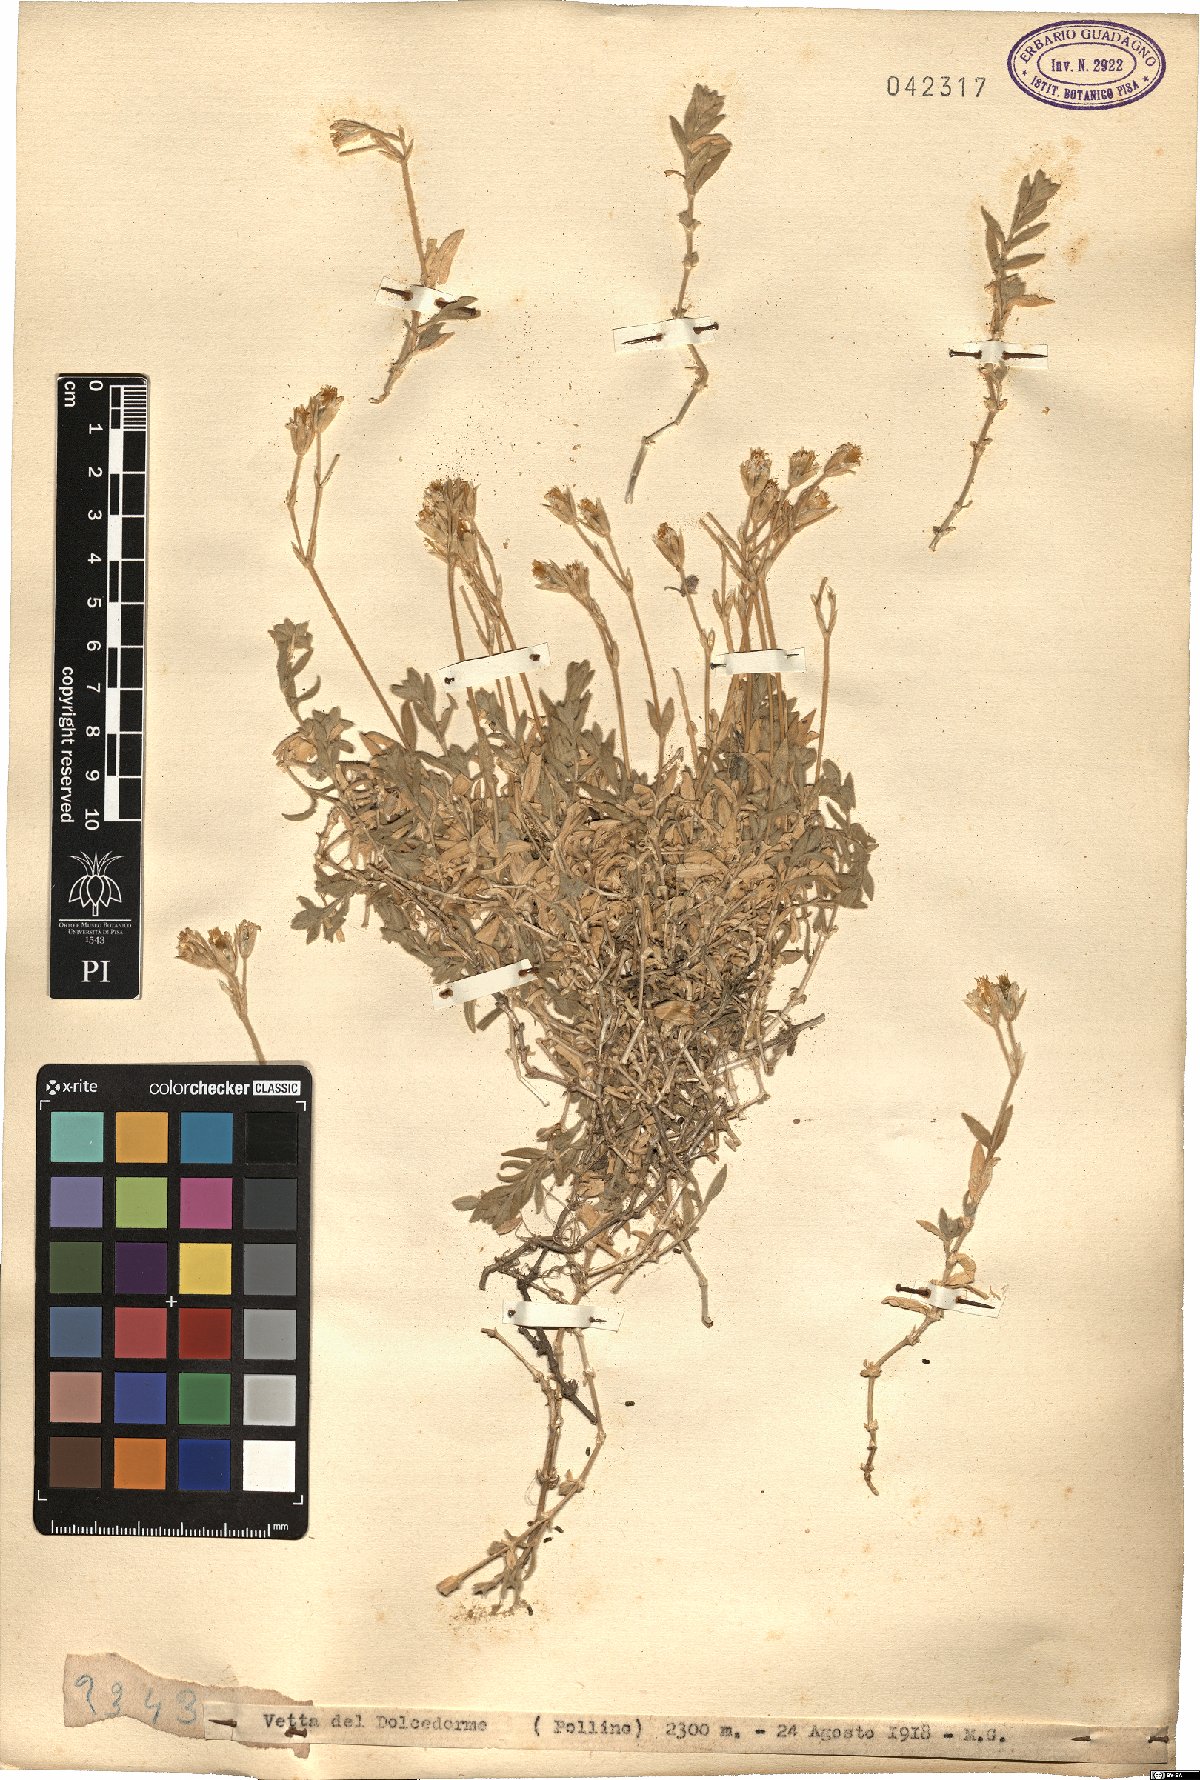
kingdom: Plantae
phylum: Tracheophyta
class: Magnoliopsida
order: Caryophyllales
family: Caryophyllaceae
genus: Cerastium
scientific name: Cerastium
